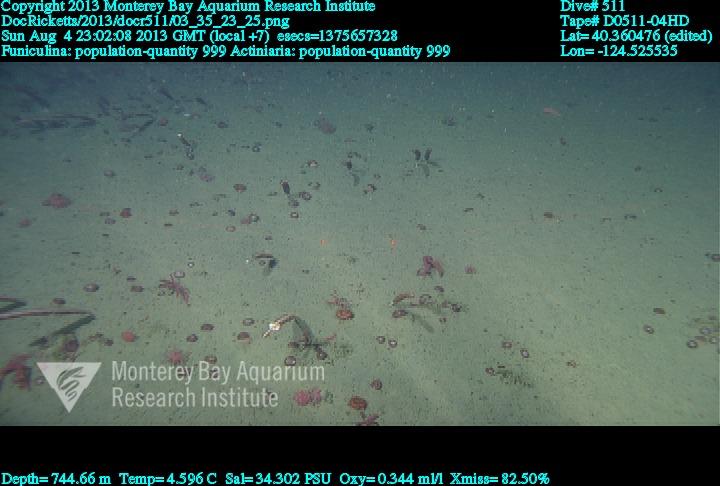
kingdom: Animalia
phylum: Cnidaria
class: Anthozoa
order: Scleralcyonacea
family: Funiculinidae
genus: Funiculina
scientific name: Funiculina
